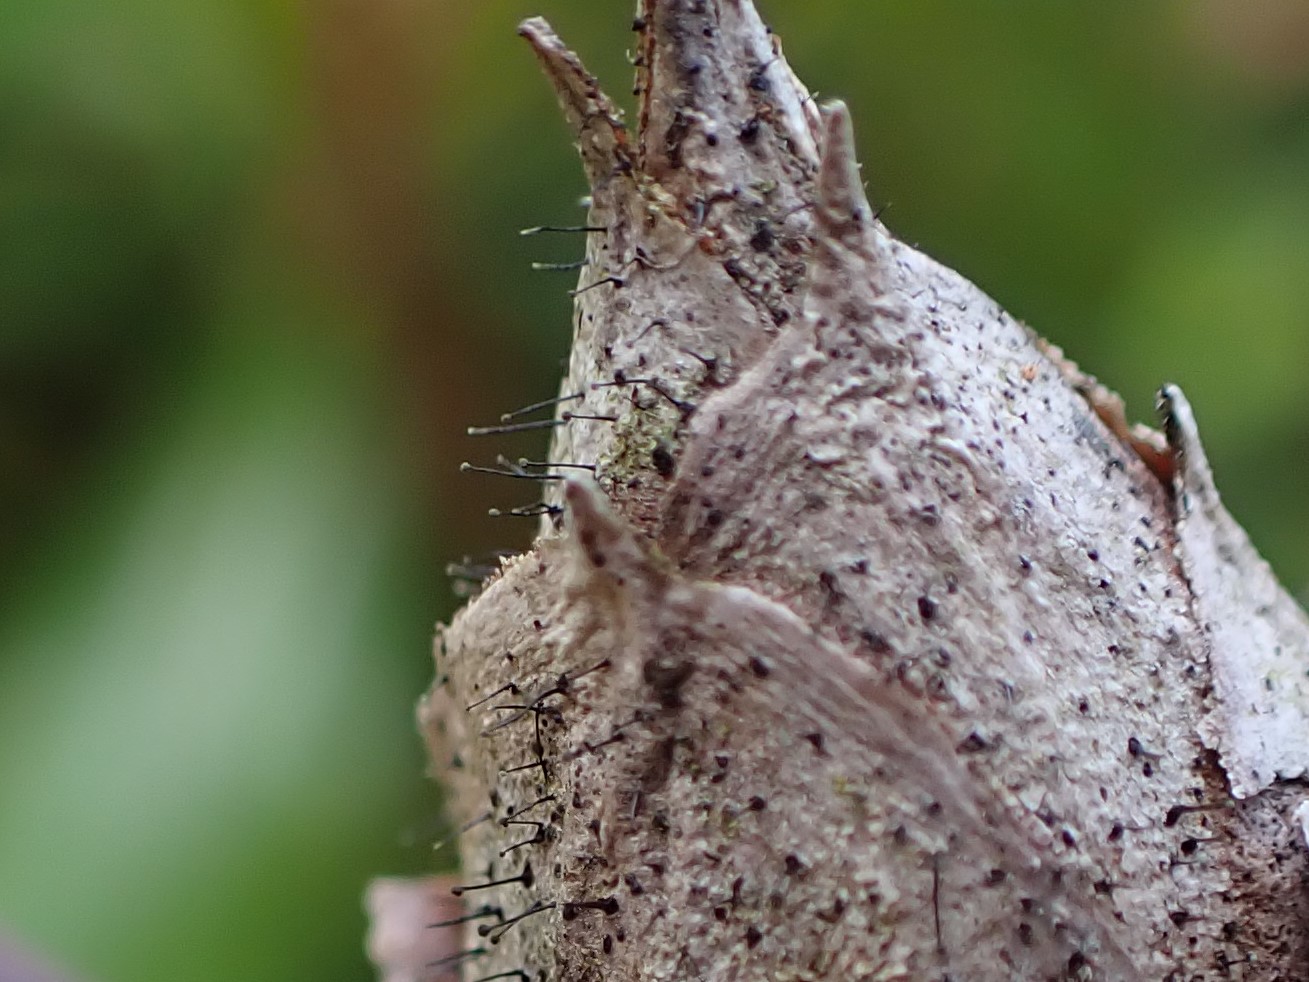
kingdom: Fungi
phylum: Ascomycota
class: Dothideomycetes
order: Pleosporales
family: Melanommataceae
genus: Seifertia
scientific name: Seifertia azaleae
